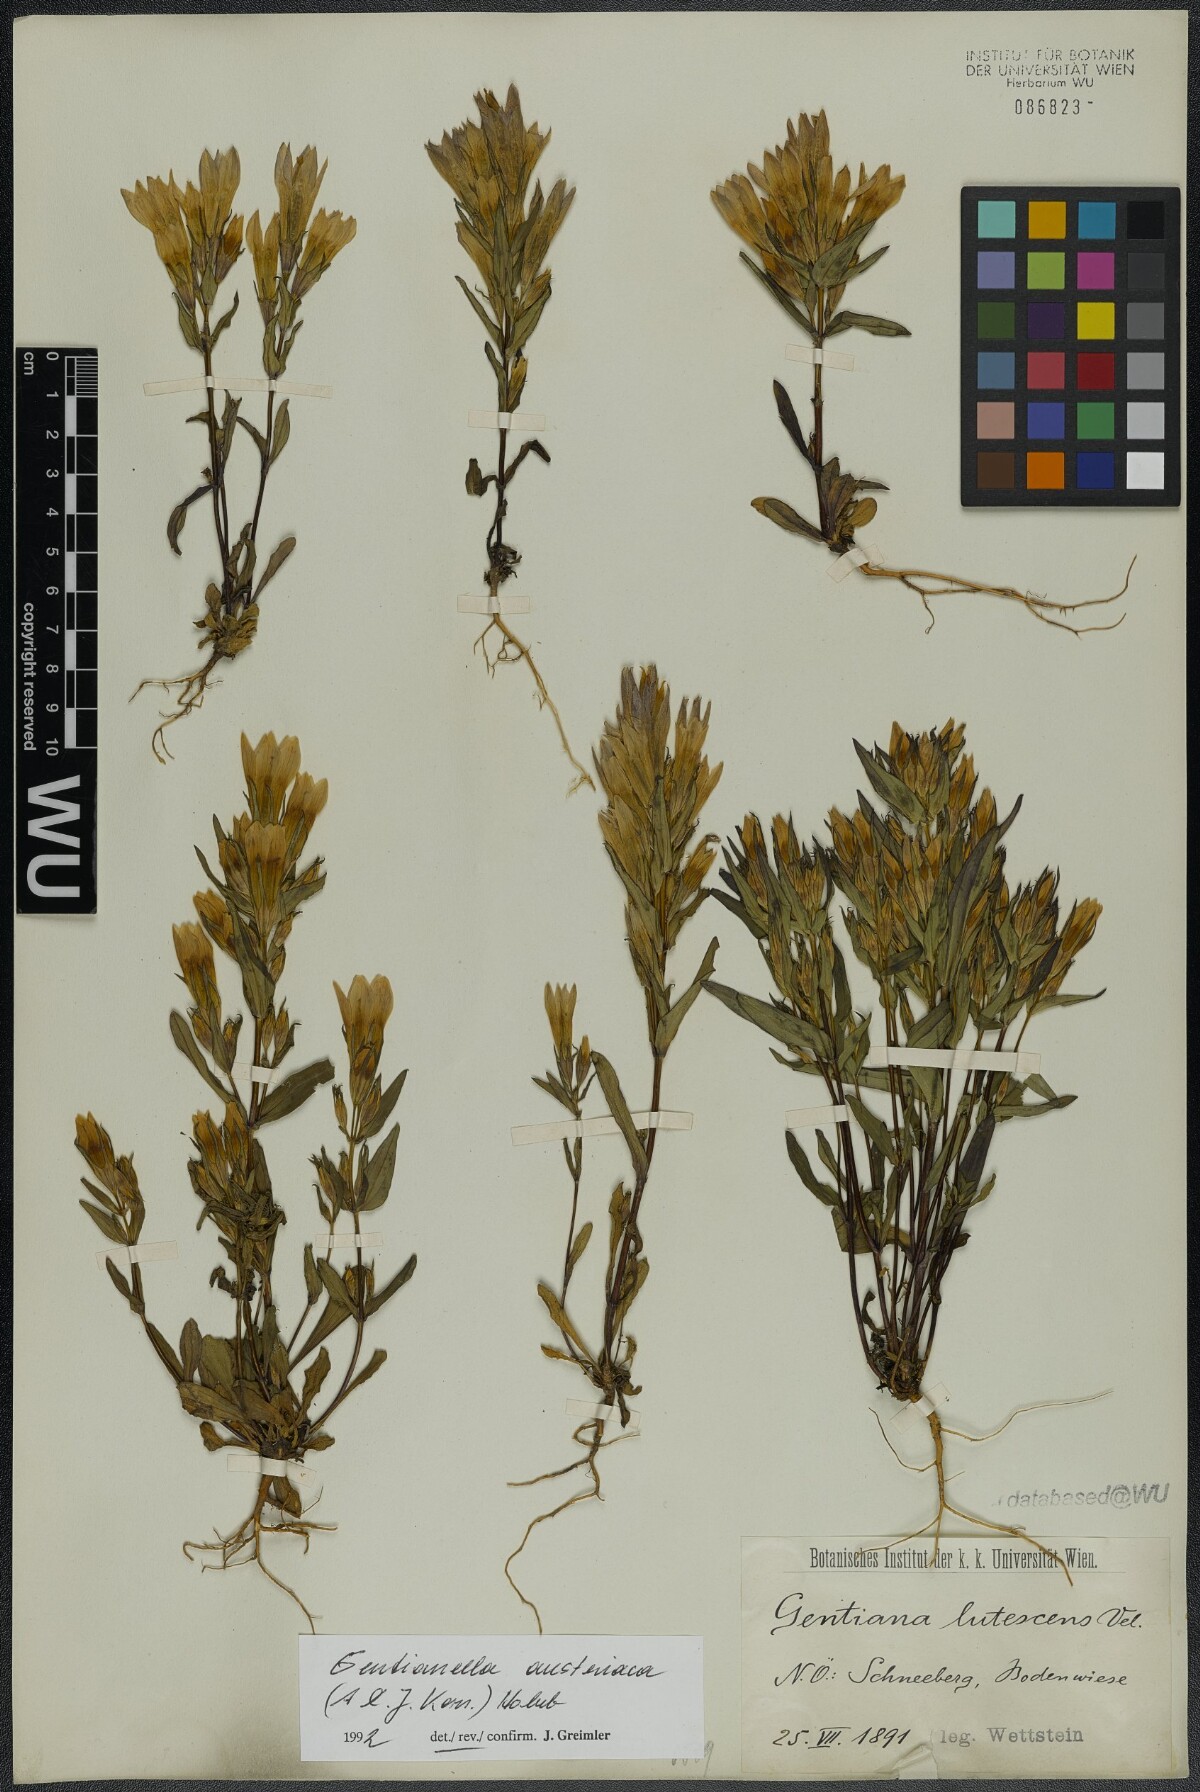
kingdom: Plantae
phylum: Tracheophyta
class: Magnoliopsida
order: Gentianales
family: Gentianaceae
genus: Gentianella
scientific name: Gentianella austriaca
